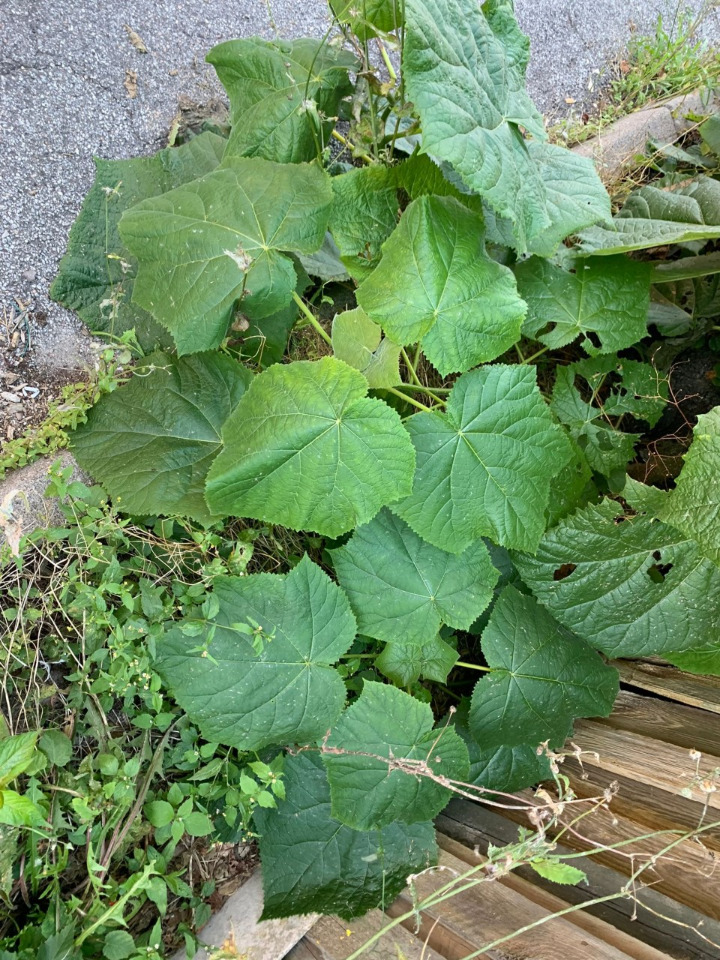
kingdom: Plantae
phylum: Tracheophyta
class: Magnoliopsida
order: Lamiales
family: Paulowniaceae
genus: Paulownia
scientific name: Paulownia tomentosa
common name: Kejsertræ
